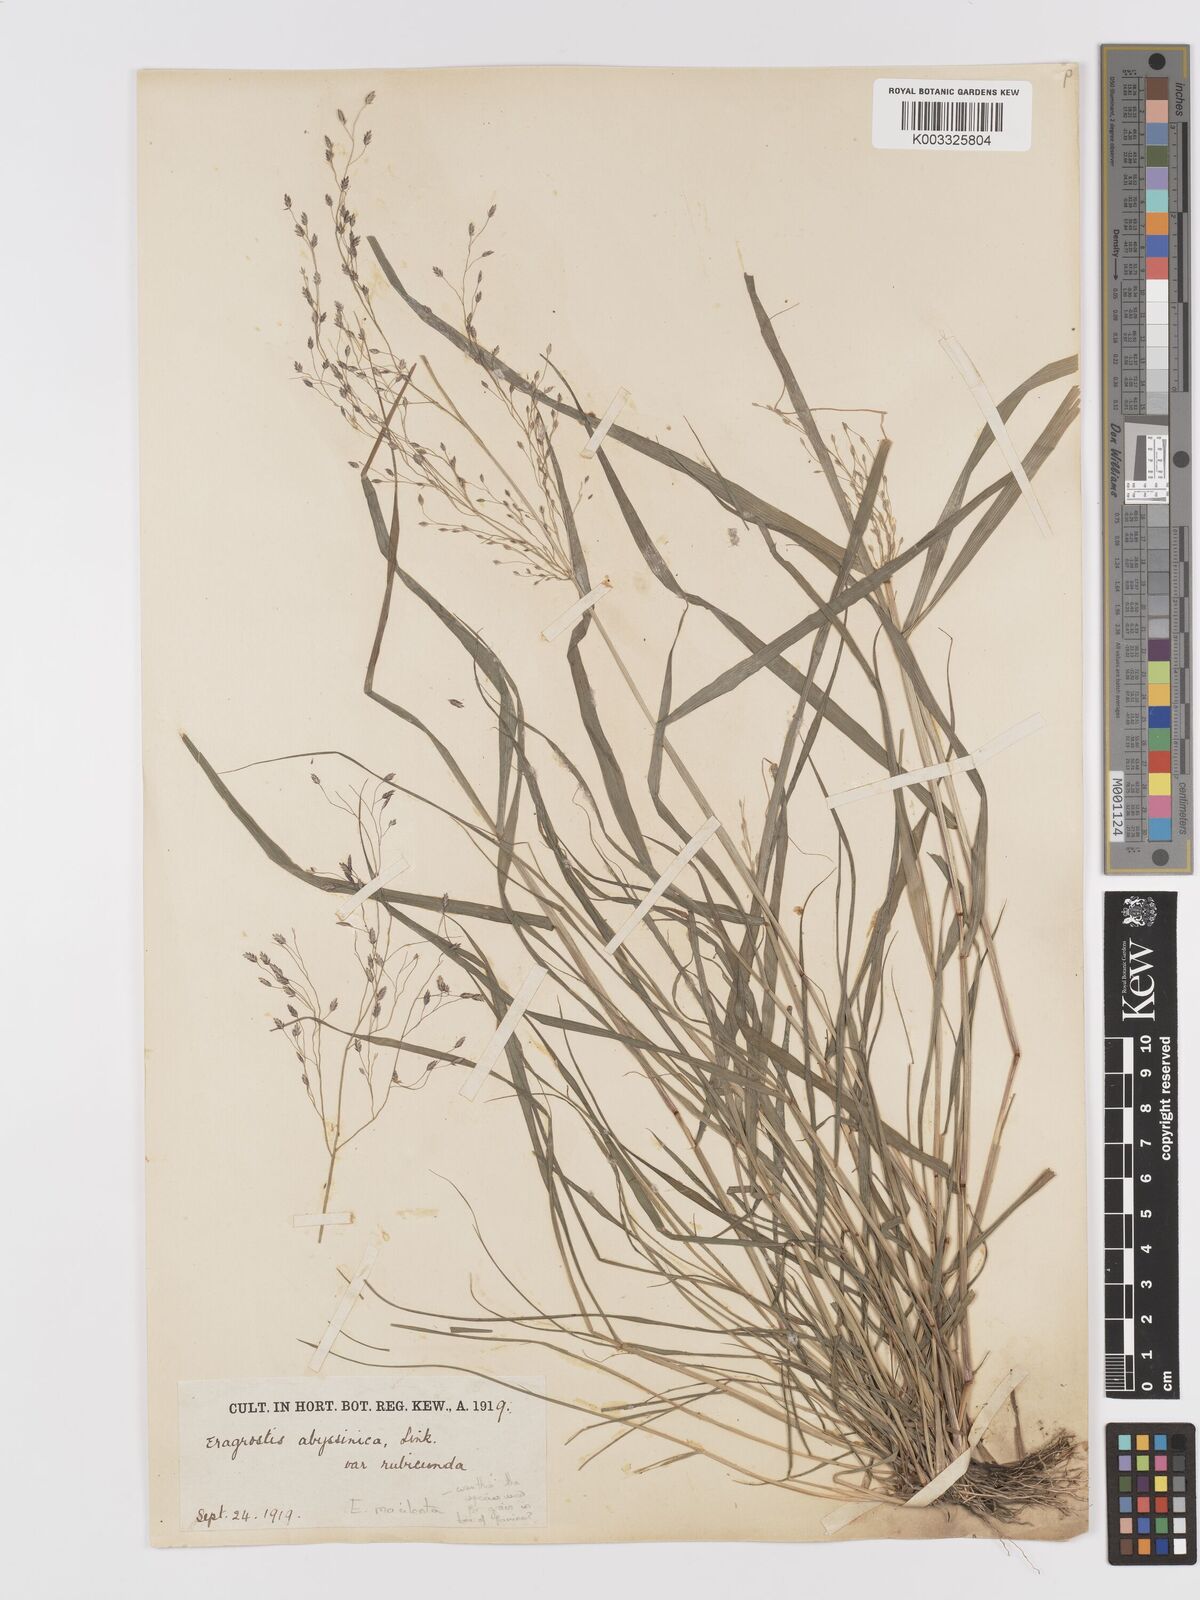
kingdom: Plantae
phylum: Tracheophyta
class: Liliopsida
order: Poales
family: Poaceae
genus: Eragrostis
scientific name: Eragrostis tef
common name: Teff
